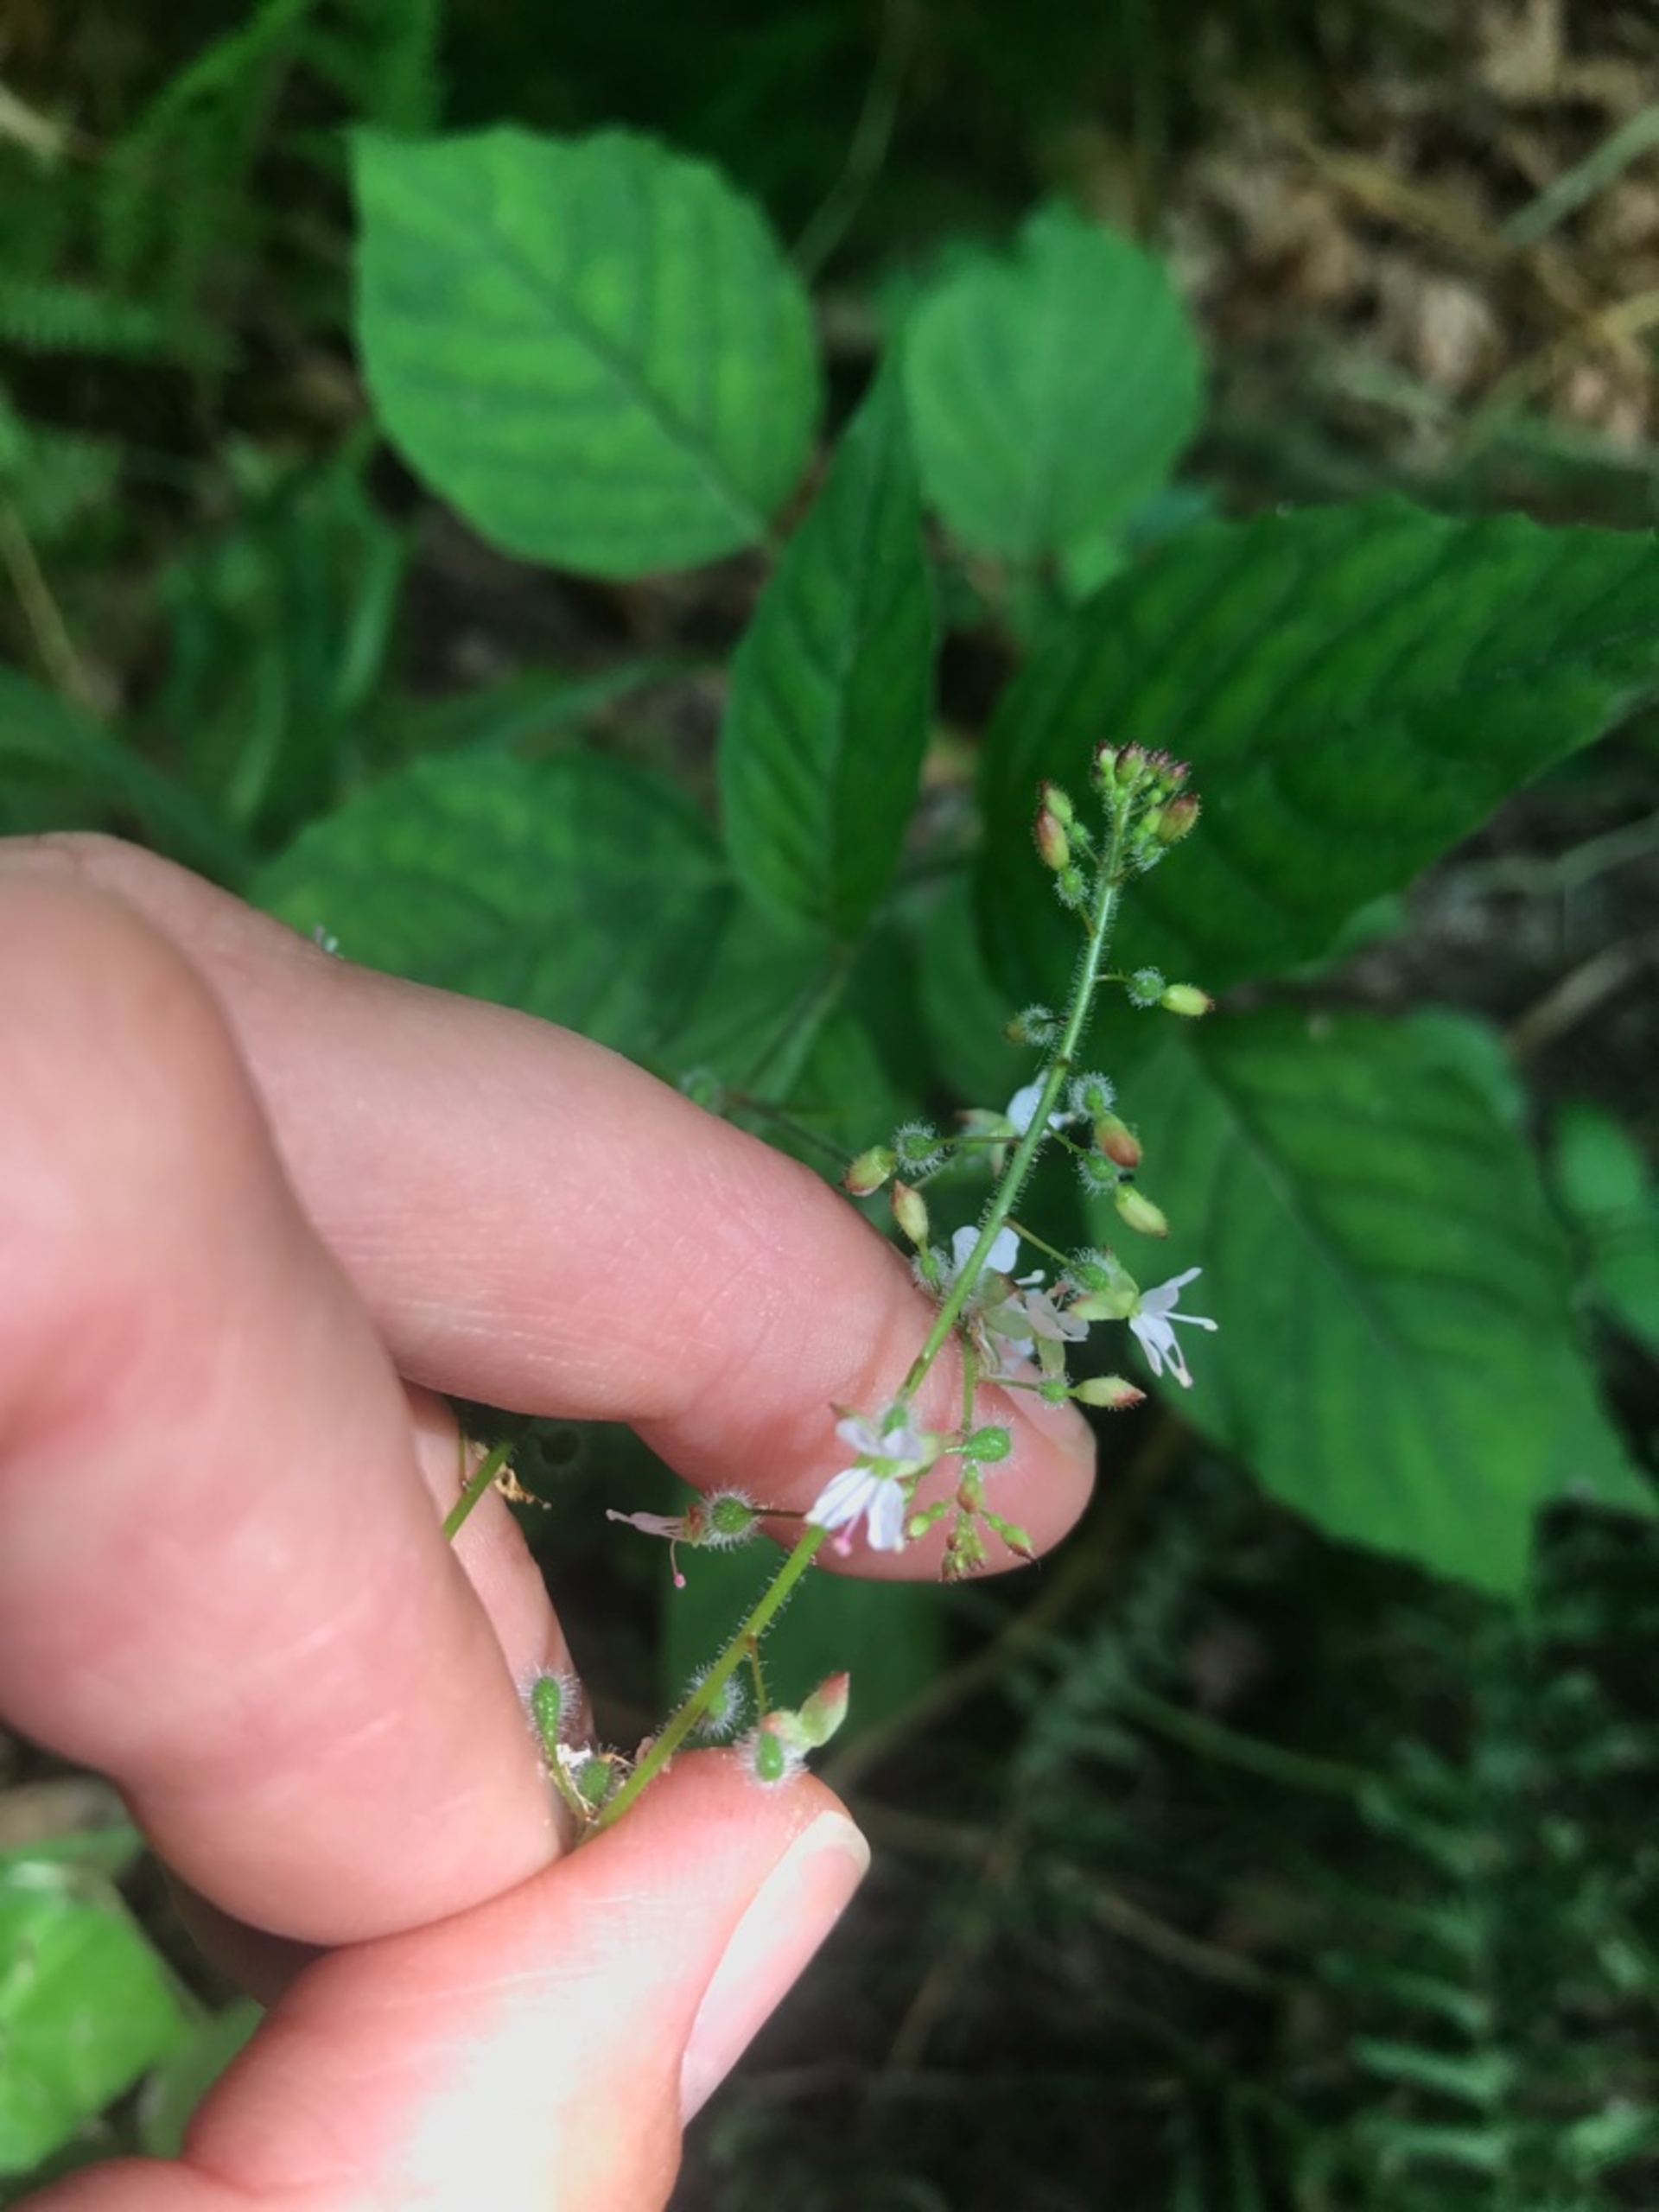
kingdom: Plantae
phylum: Tracheophyta
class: Magnoliopsida
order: Myrtales
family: Onagraceae
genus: Circaea
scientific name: Circaea lutetiana
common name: Dunet steffensurt
